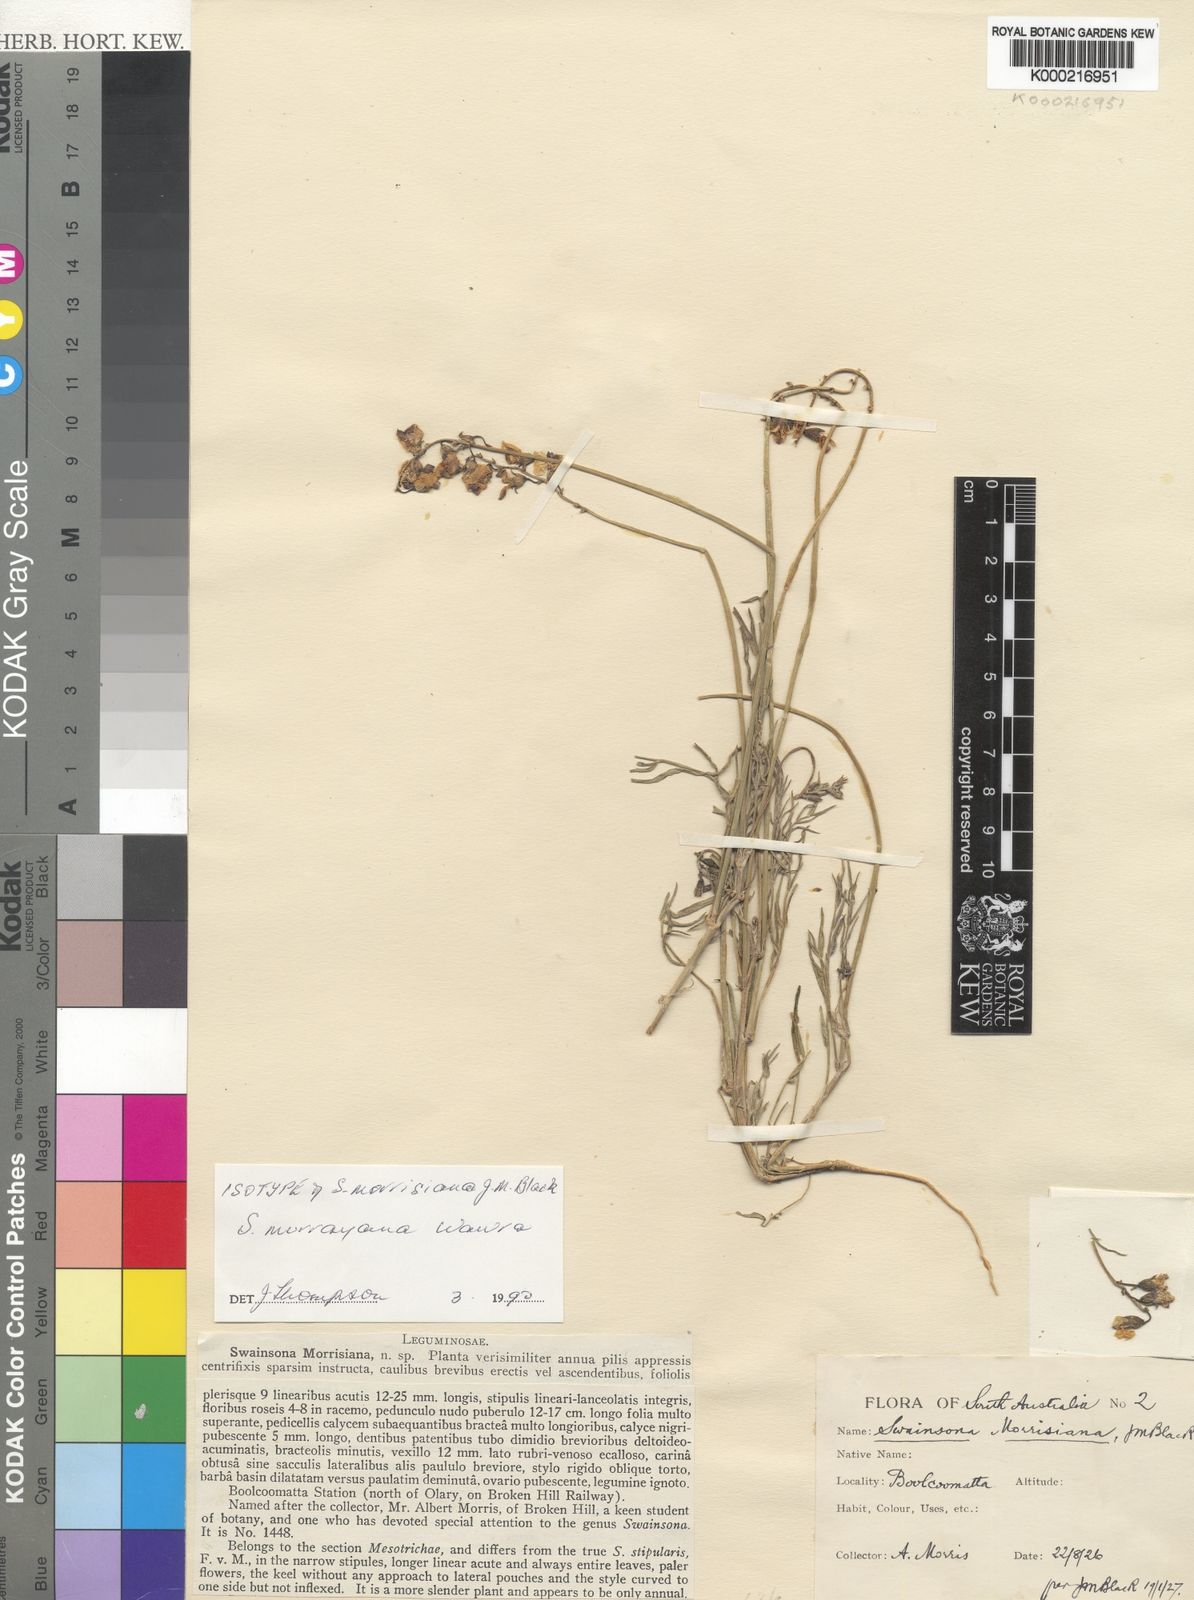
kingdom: Plantae
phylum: Tracheophyta
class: Magnoliopsida
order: Fabales
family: Fabaceae
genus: Swainsona
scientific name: Swainsona murrayana
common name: Slender darling-pea
